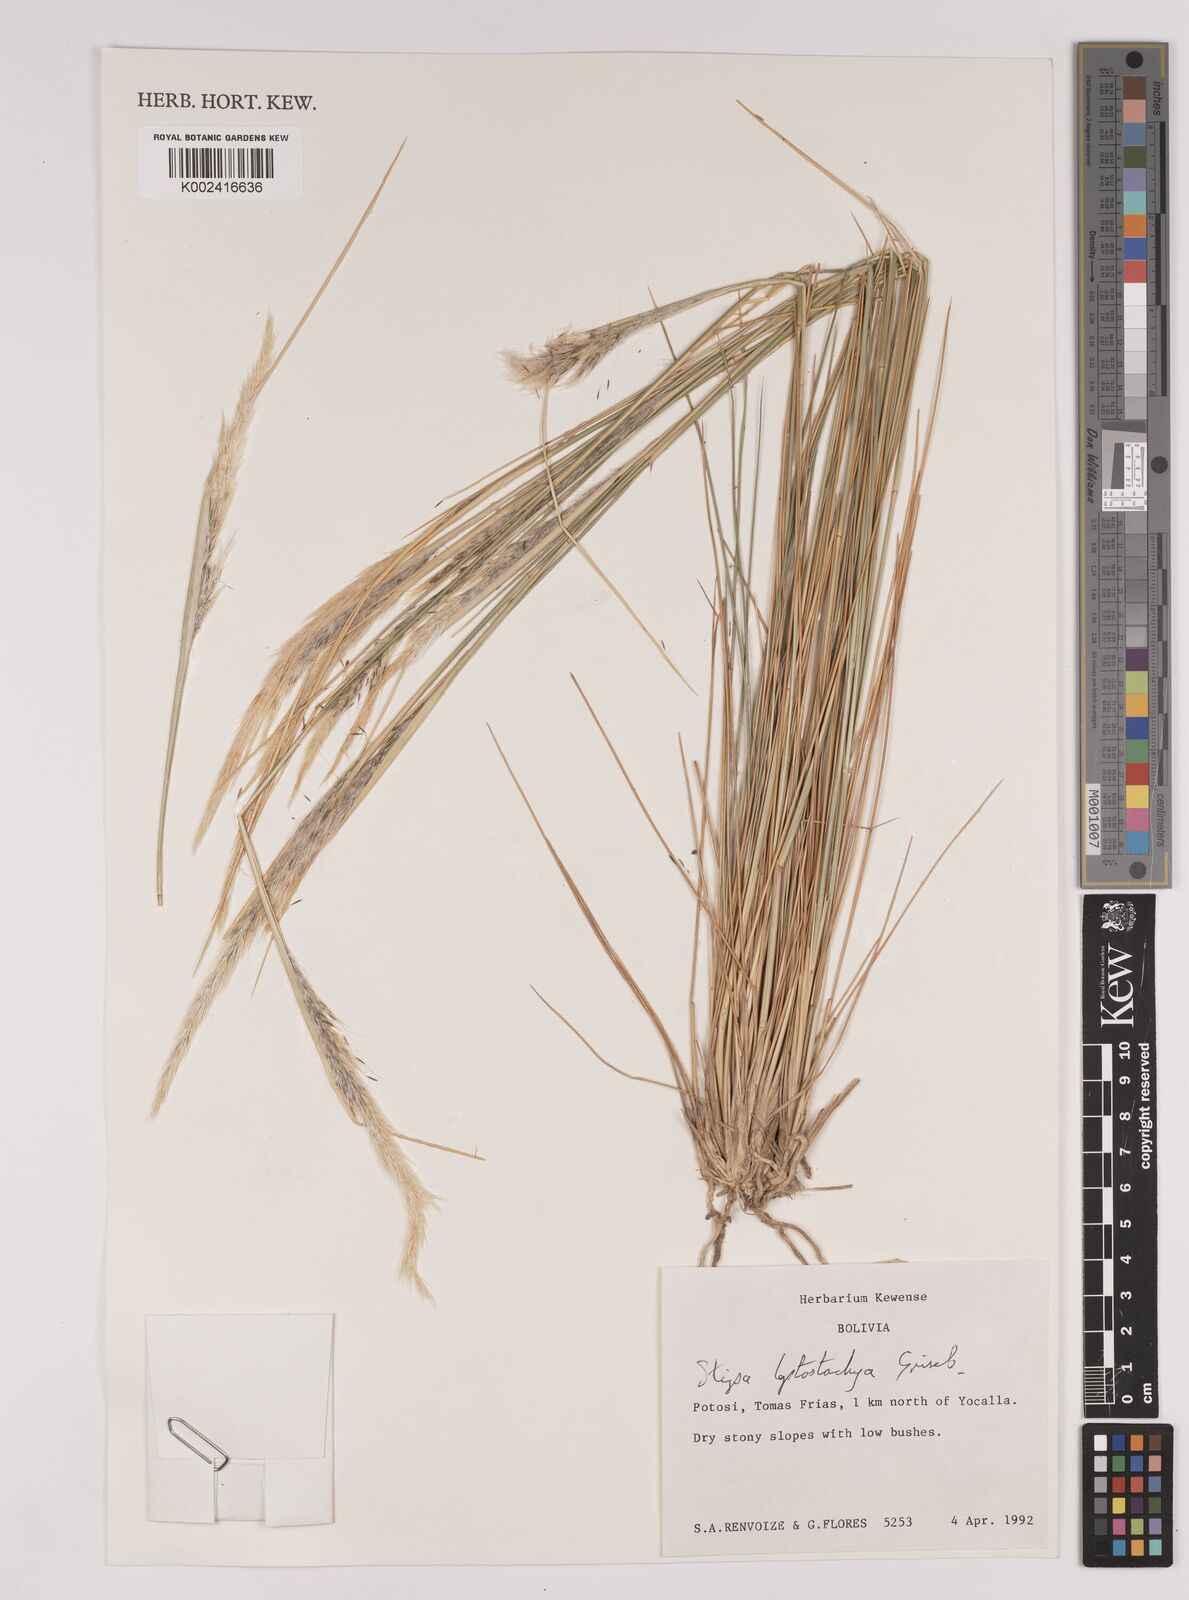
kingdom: Plantae
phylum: Tracheophyta
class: Liliopsida
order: Poales
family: Poaceae
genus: Jarava
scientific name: Jarava leptostachya
